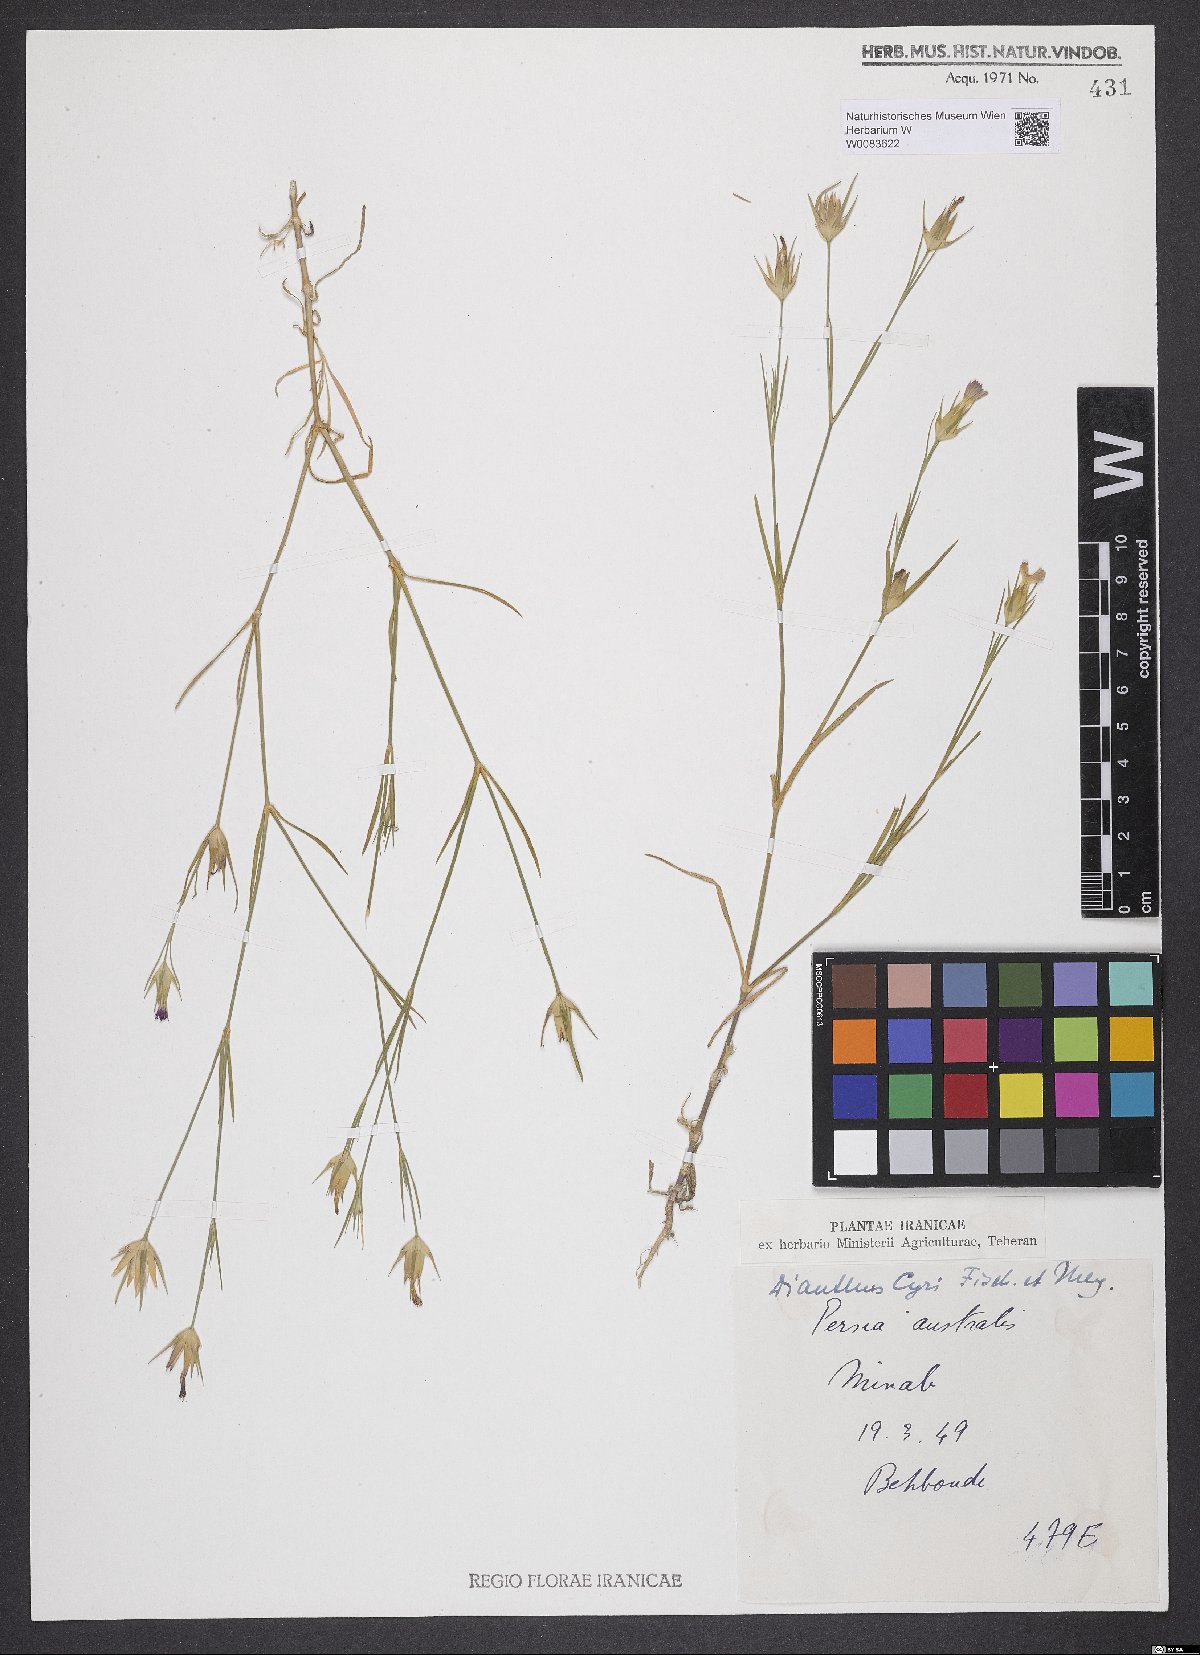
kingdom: Plantae
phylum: Tracheophyta
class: Magnoliopsida
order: Caryophyllales
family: Caryophyllaceae
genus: Dianthus
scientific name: Dianthus cyri
